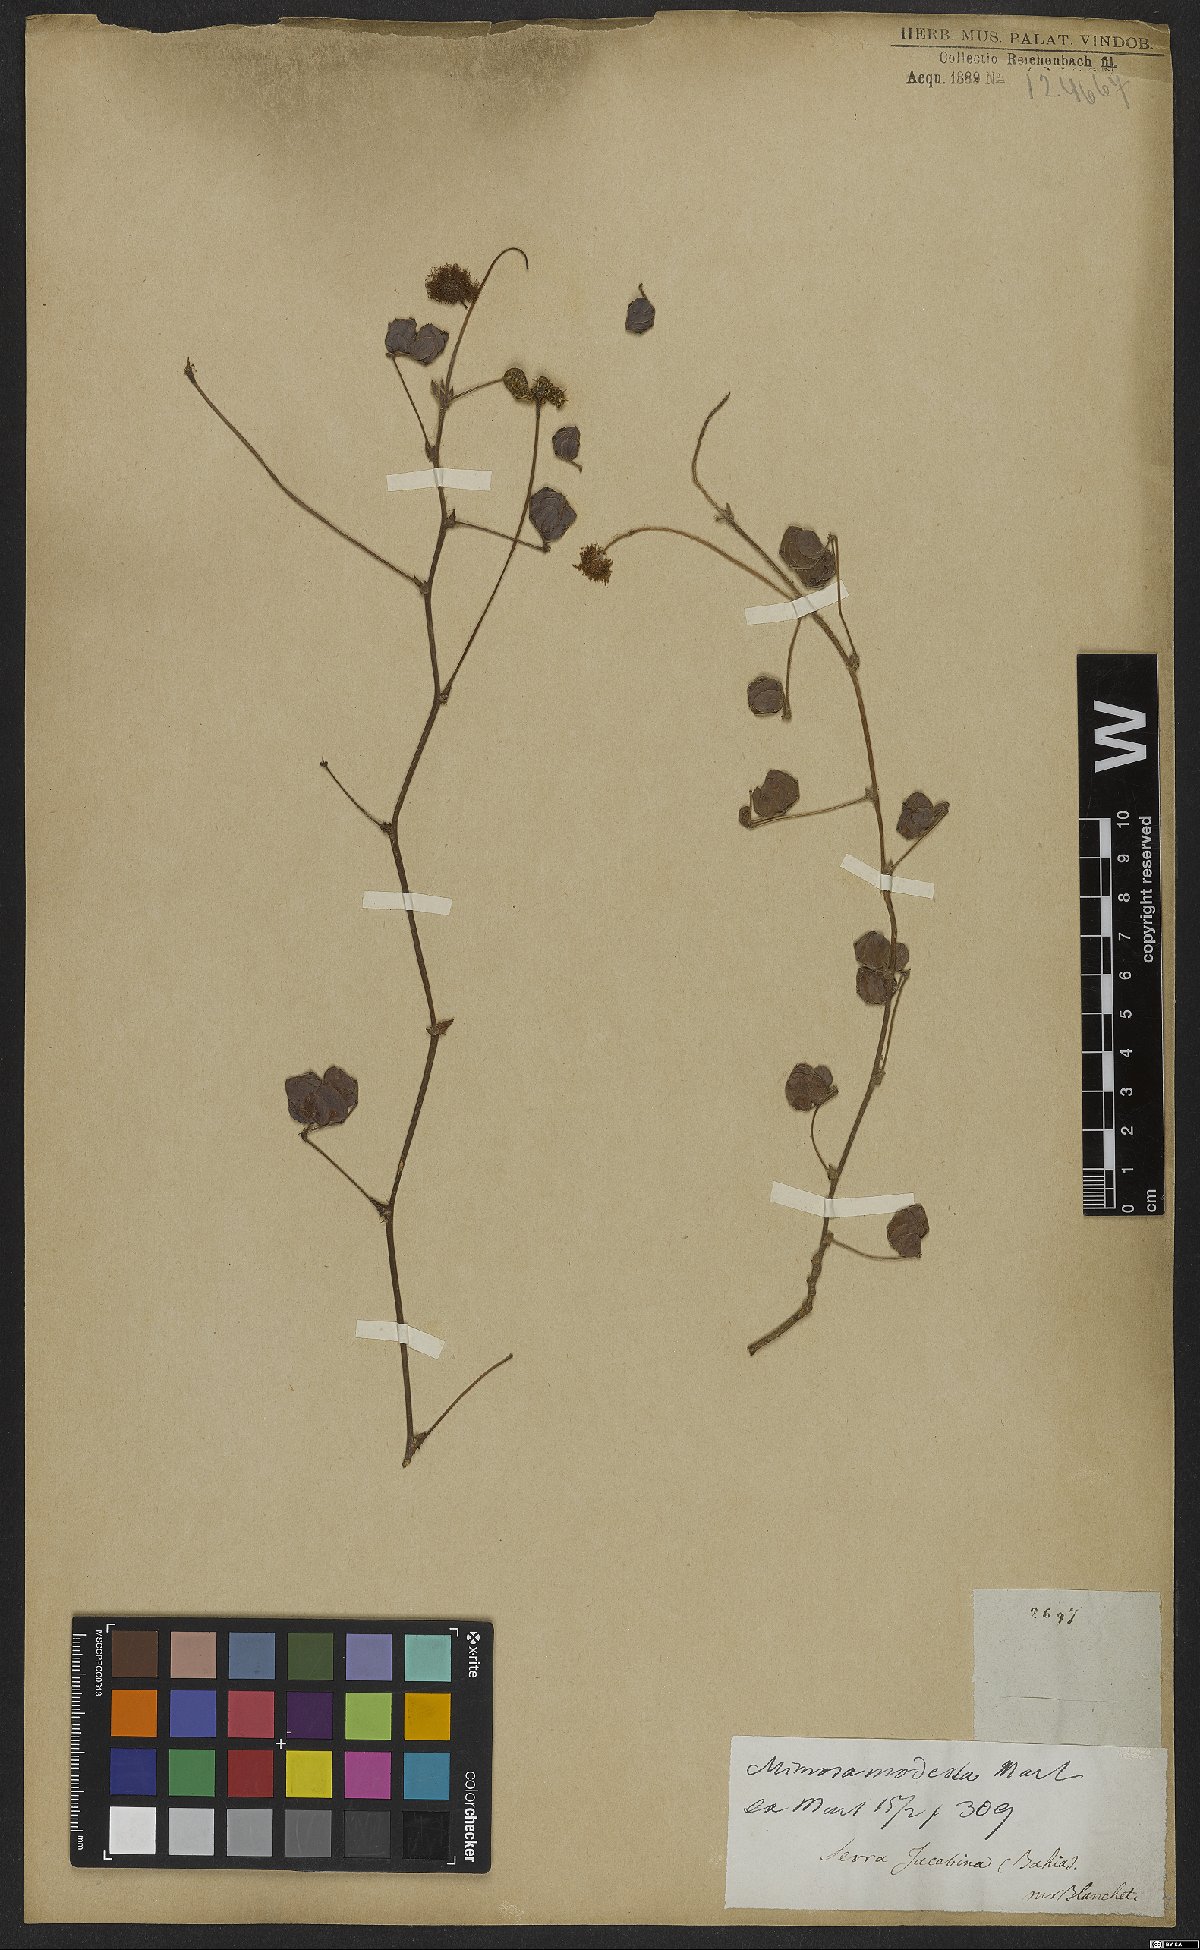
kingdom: Plantae
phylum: Tracheophyta
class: Magnoliopsida
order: Fabales
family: Fabaceae
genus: Mimosa
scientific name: Mimosa modesta
